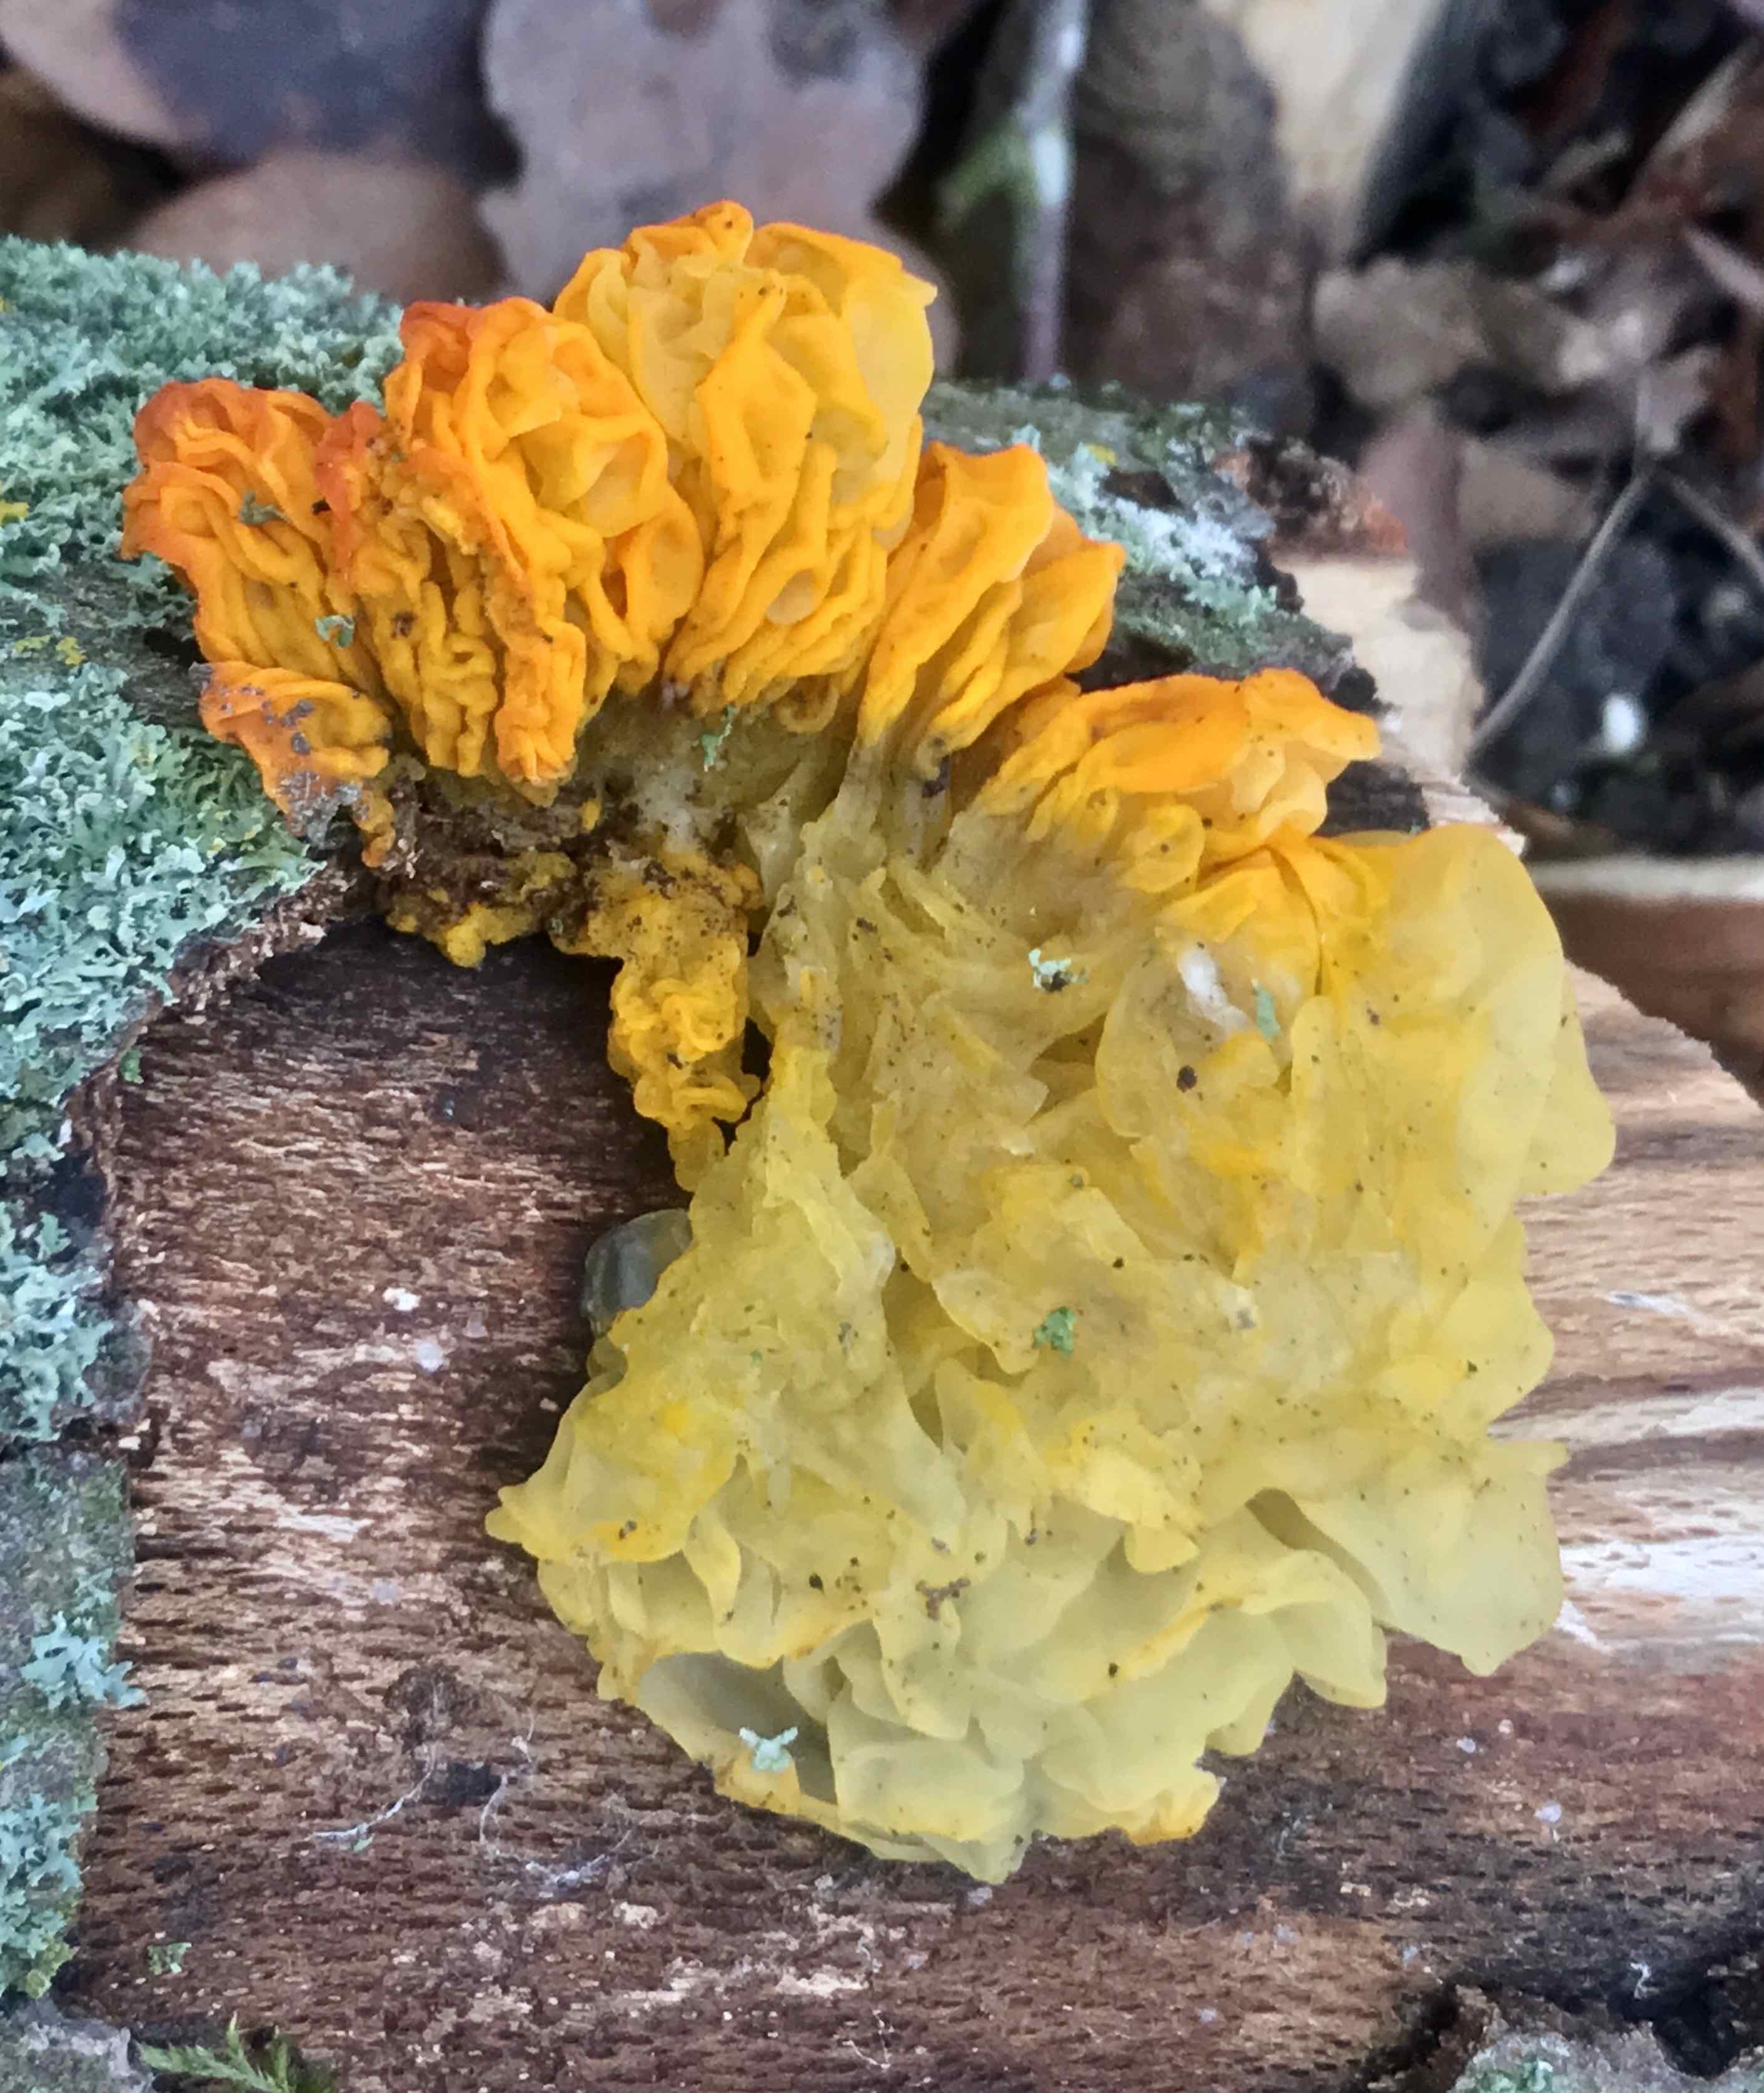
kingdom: Fungi
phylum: Basidiomycota
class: Tremellomycetes
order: Tremellales
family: Tremellaceae
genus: Tremella
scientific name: Tremella mesenterica
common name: gul bævresvamp
